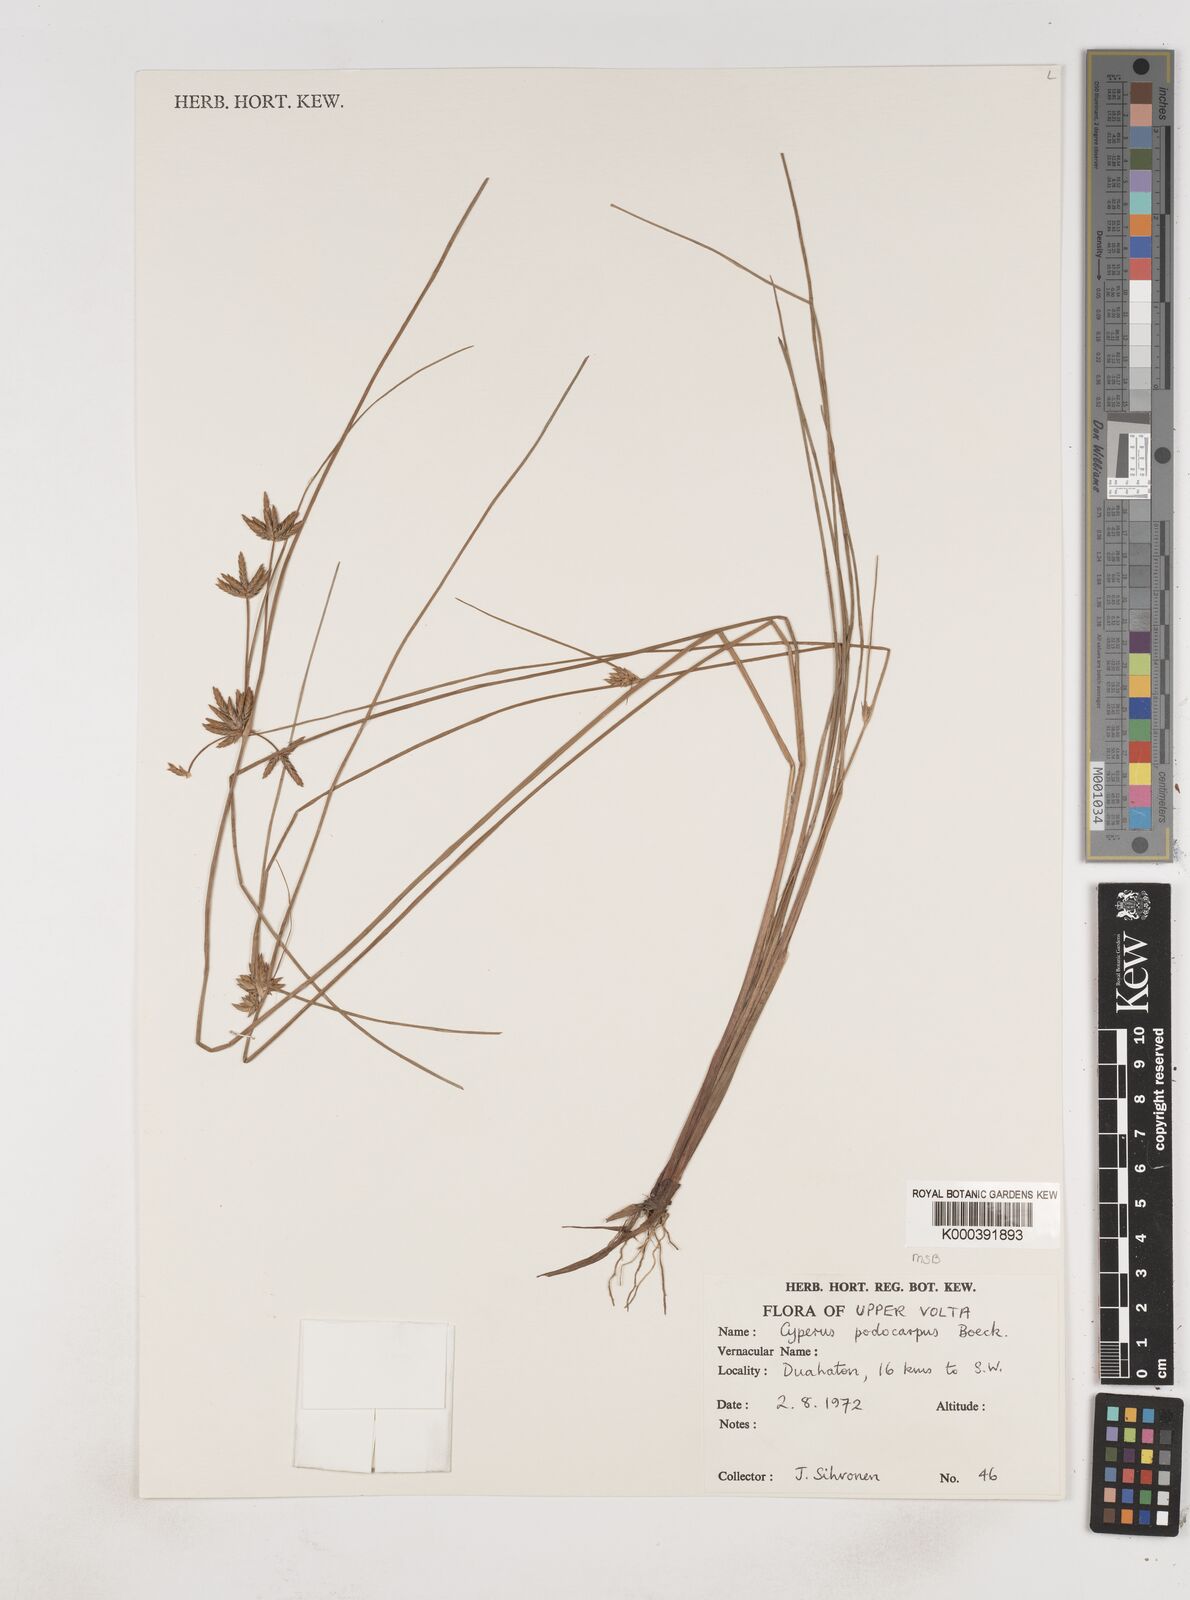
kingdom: Plantae
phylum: Tracheophyta
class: Liliopsida
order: Poales
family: Cyperaceae
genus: Cyperus
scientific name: Cyperus podocarpus
